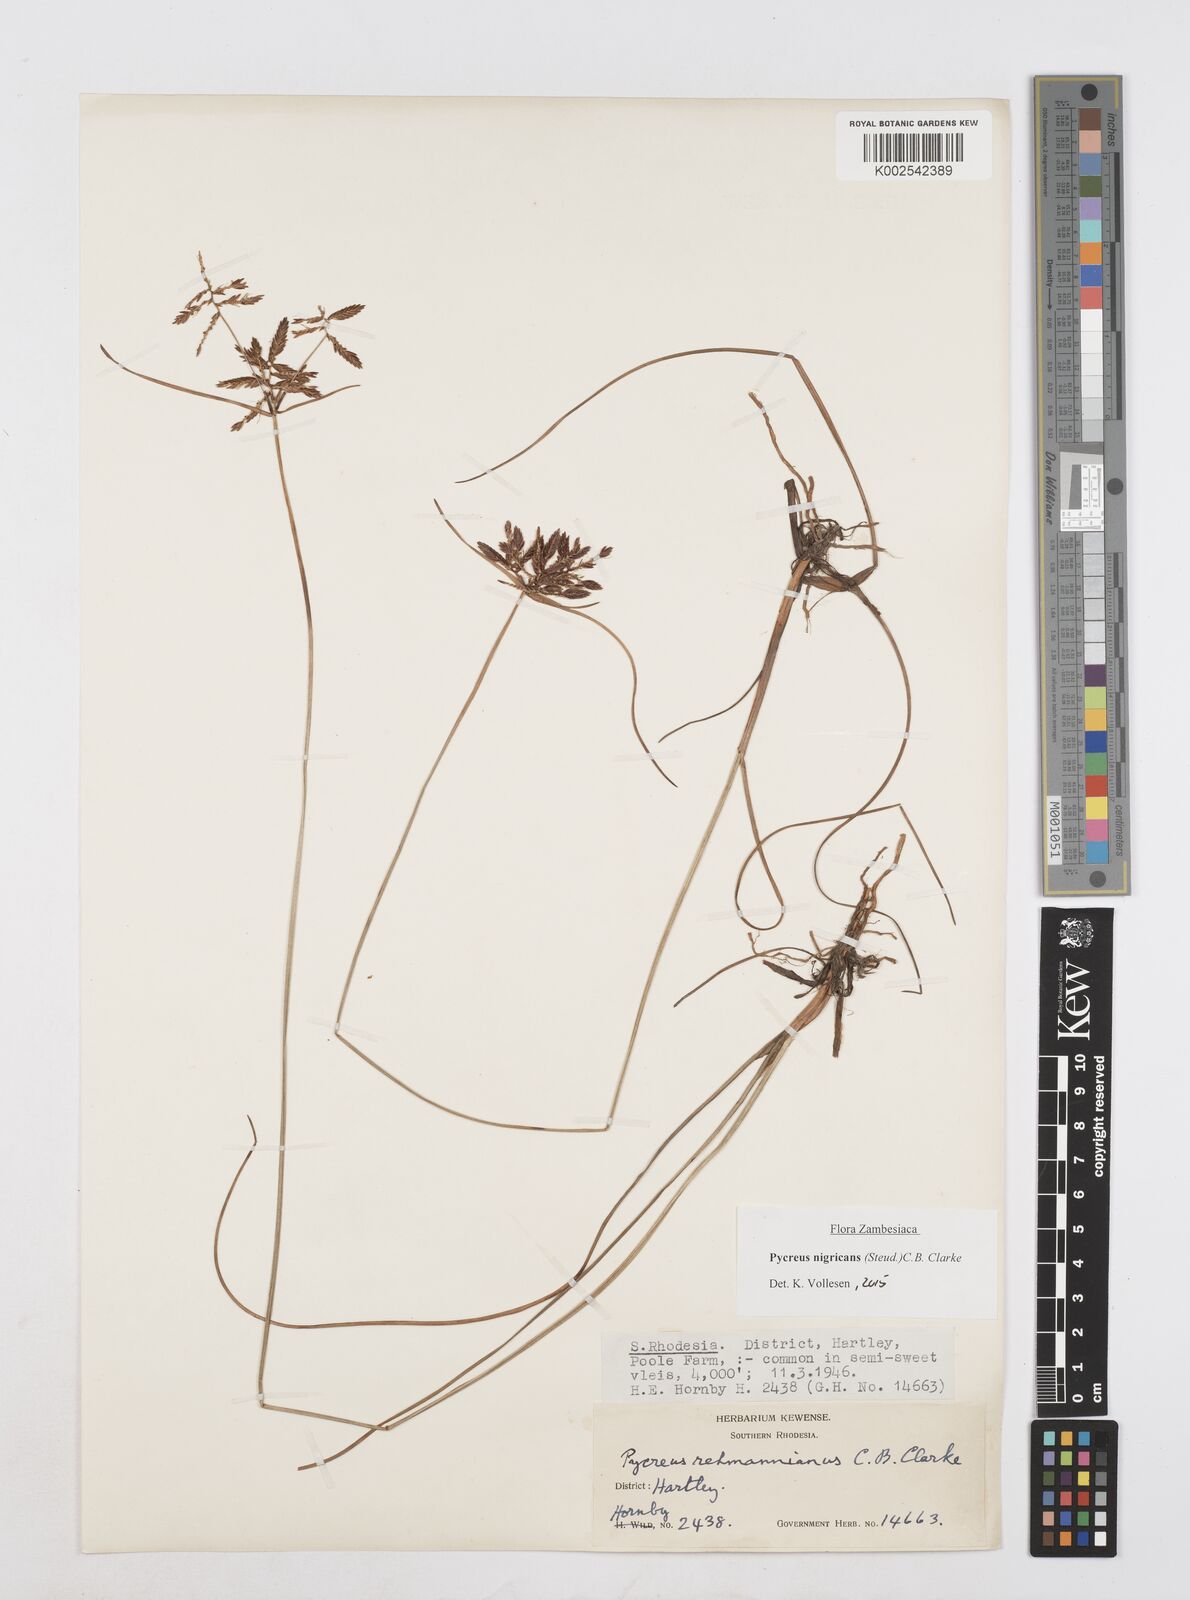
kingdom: Plantae
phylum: Tracheophyta
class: Liliopsida
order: Poales
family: Cyperaceae
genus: Cyperus
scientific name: Cyperus nigricans
